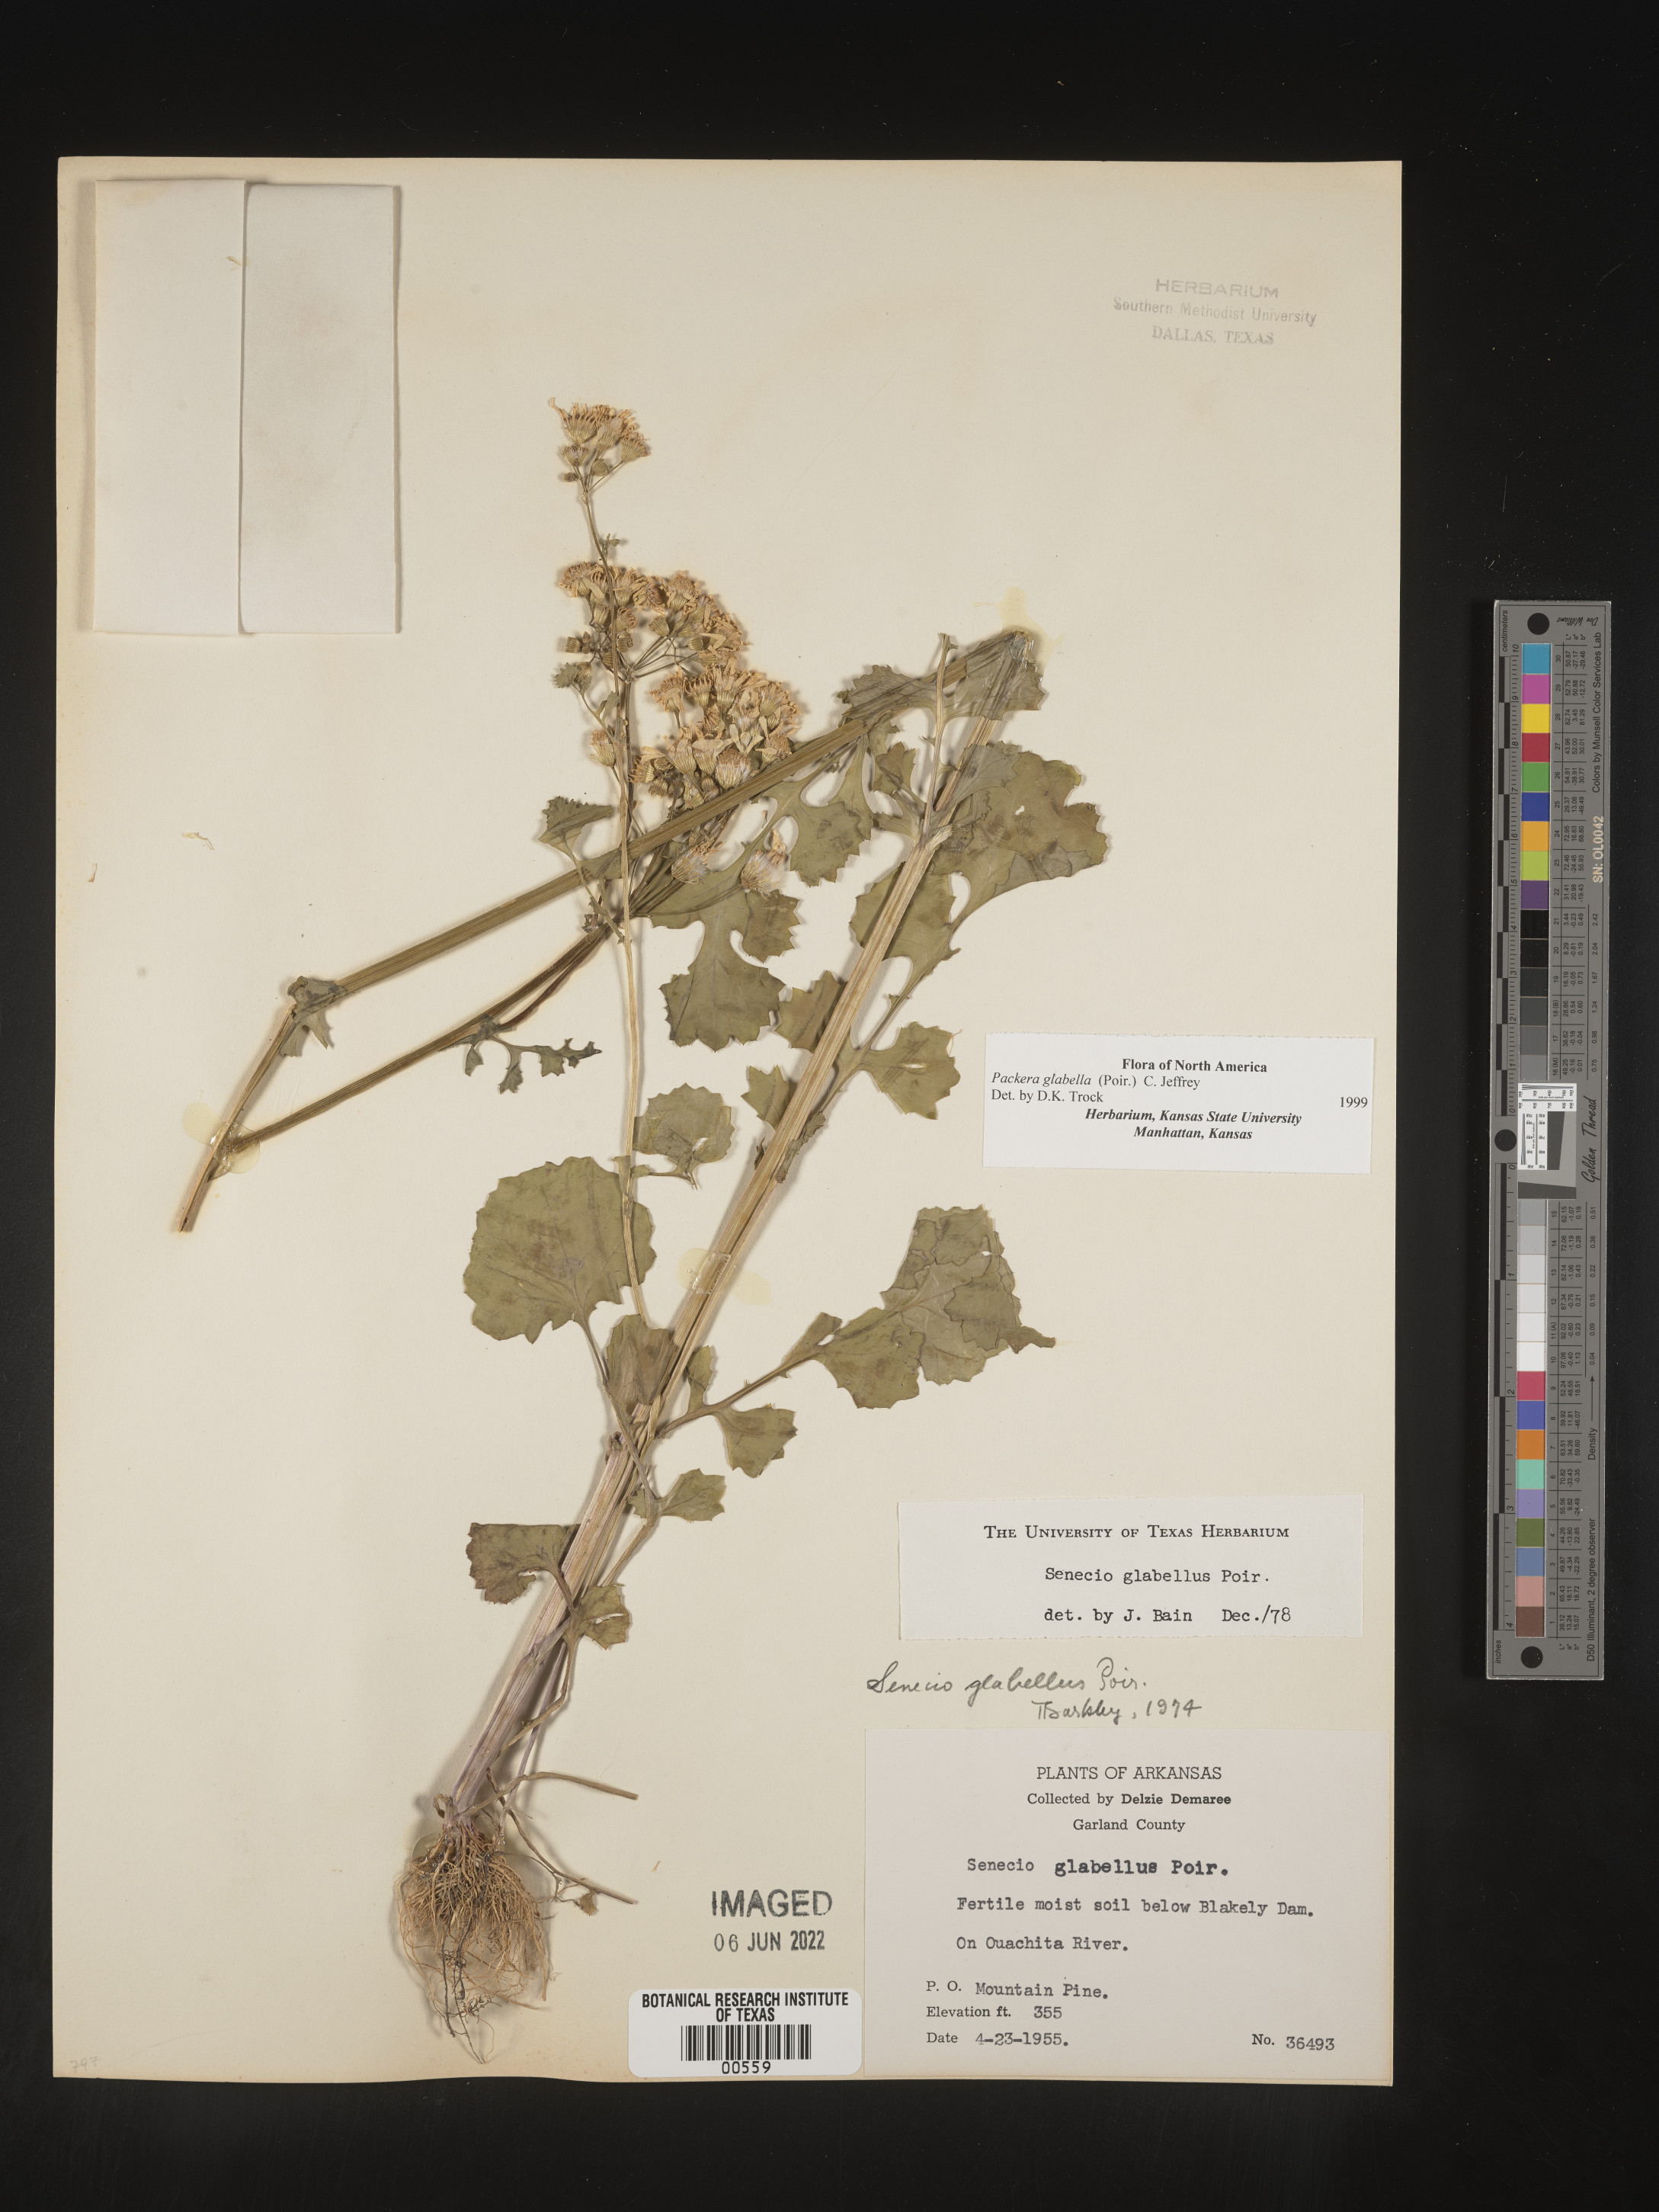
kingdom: Plantae
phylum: Tracheophyta
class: Magnoliopsida
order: Asterales
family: Asteraceae
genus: Packera
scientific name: Packera glabella
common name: Butterweed
